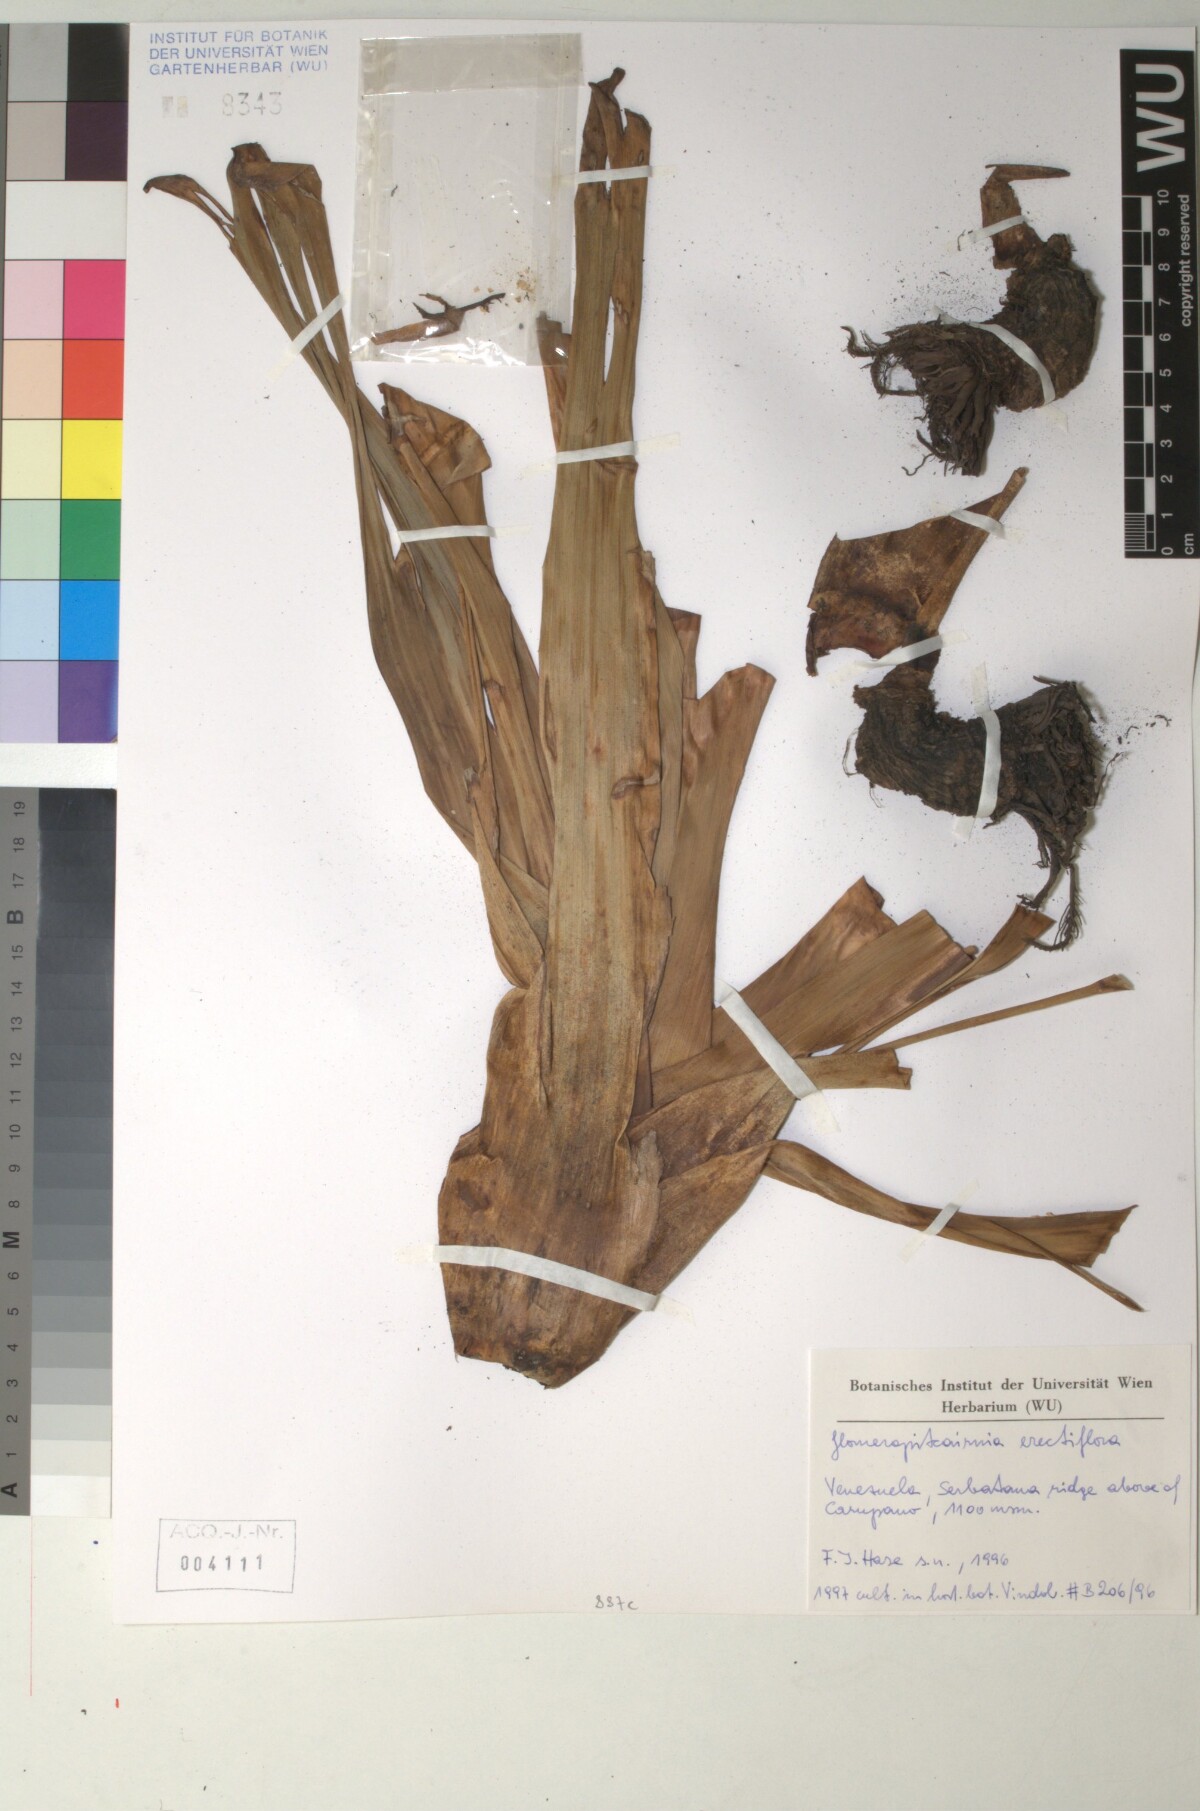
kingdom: Plantae
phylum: Tracheophyta
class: Liliopsida
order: Poales
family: Bromeliaceae
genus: Glomeropitcairnia
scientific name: Glomeropitcairnia erectiflora
